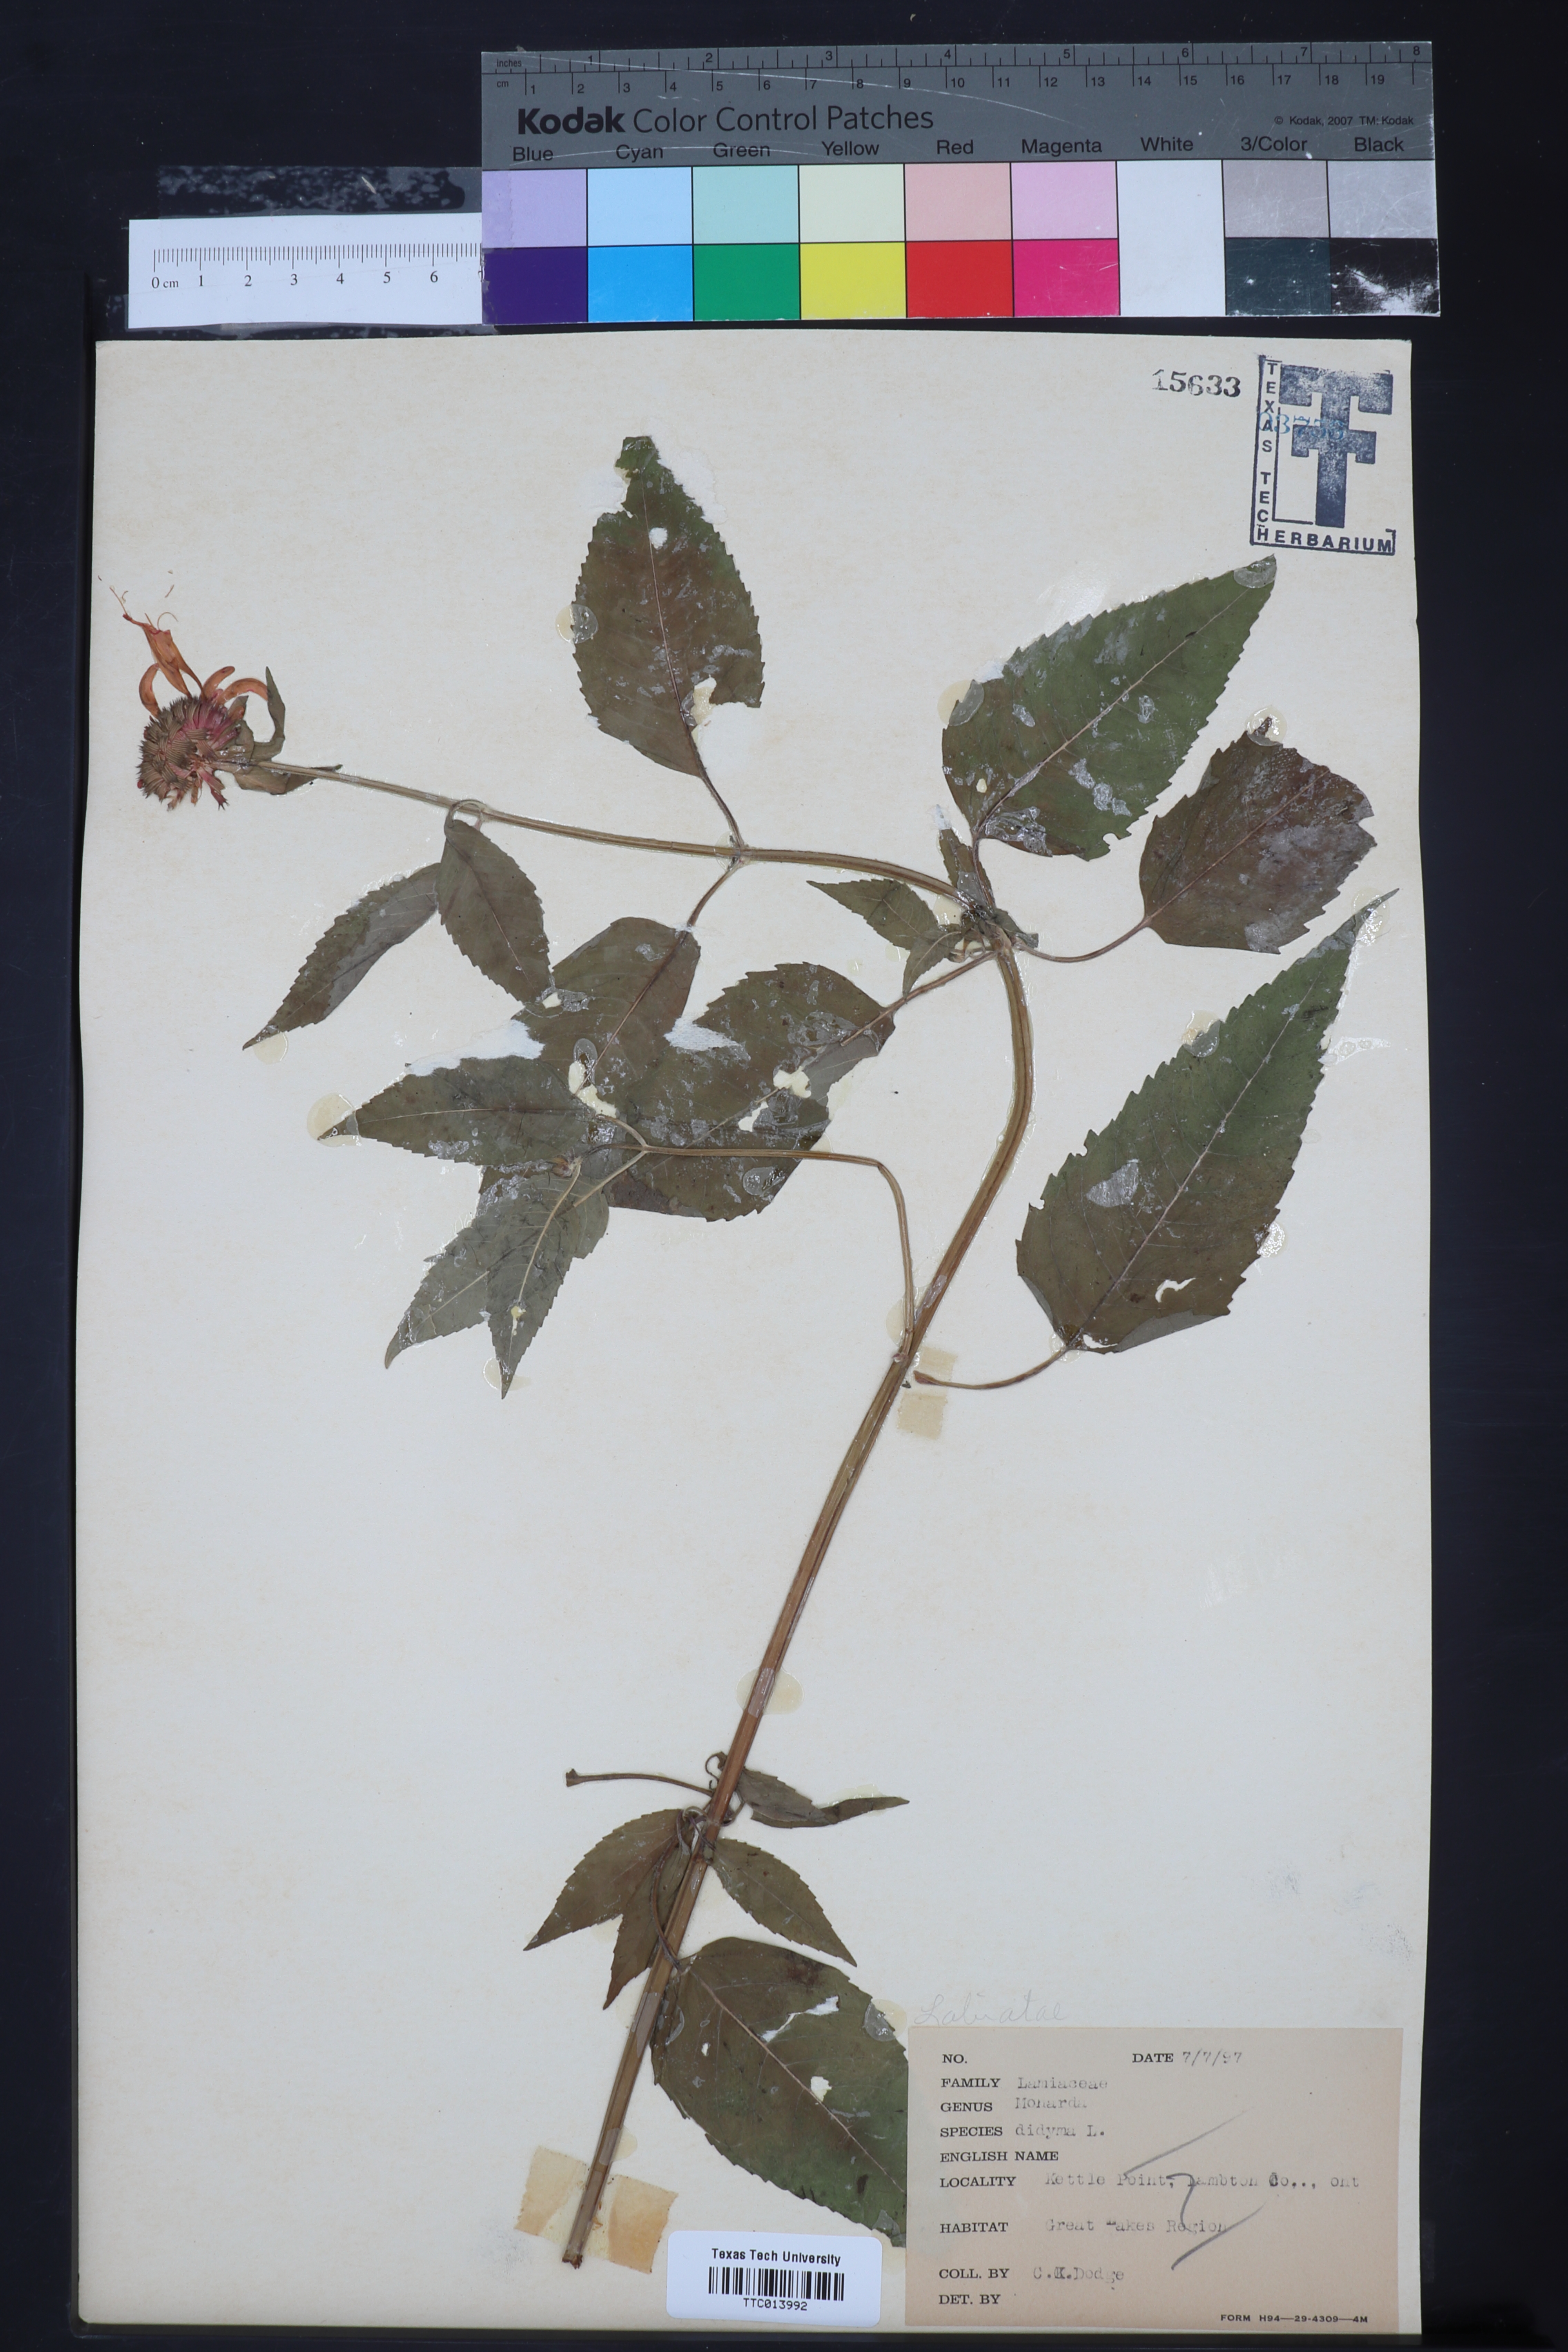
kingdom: Plantae
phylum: Tracheophyta
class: Magnoliopsida
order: Lamiales
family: Lamiaceae
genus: Monarda
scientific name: Monarda didyma
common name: Beebalm
